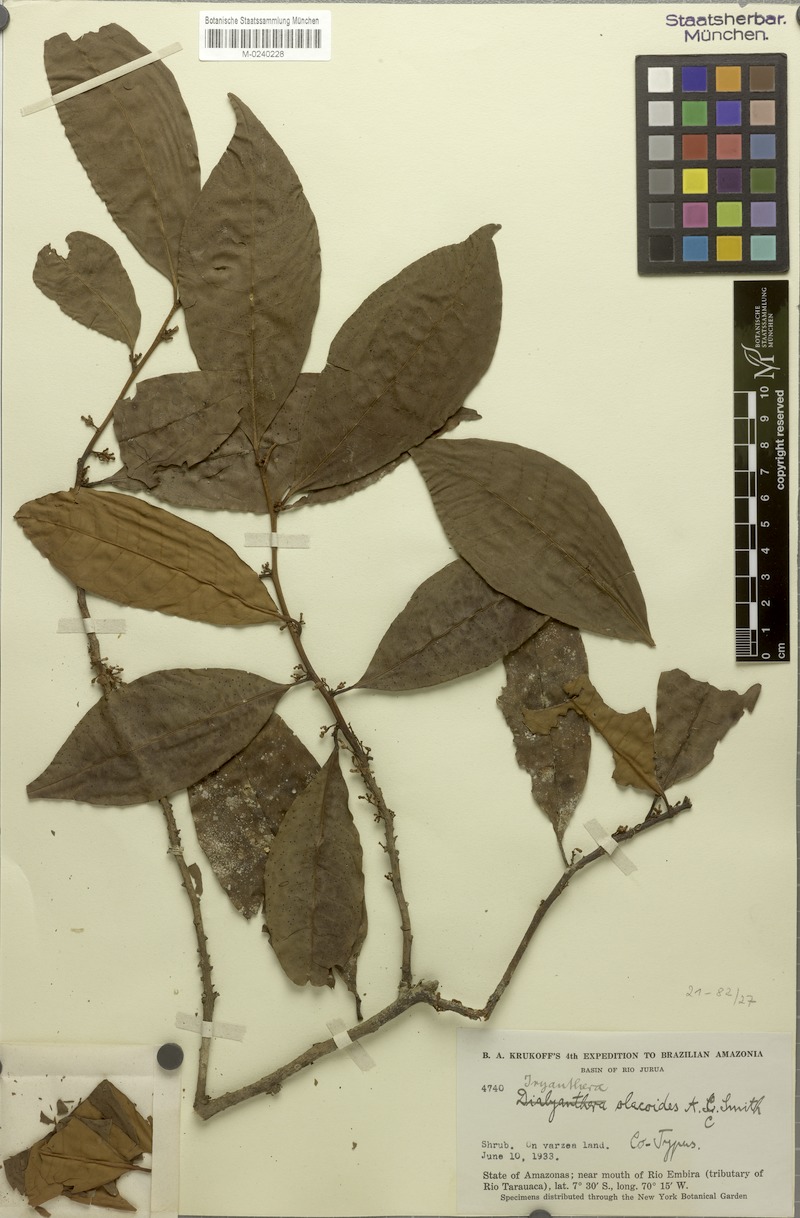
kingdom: Plantae
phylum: Tracheophyta
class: Magnoliopsida
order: Magnoliales
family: Myristicaceae
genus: Iryanthera
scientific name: Iryanthera olacoides
